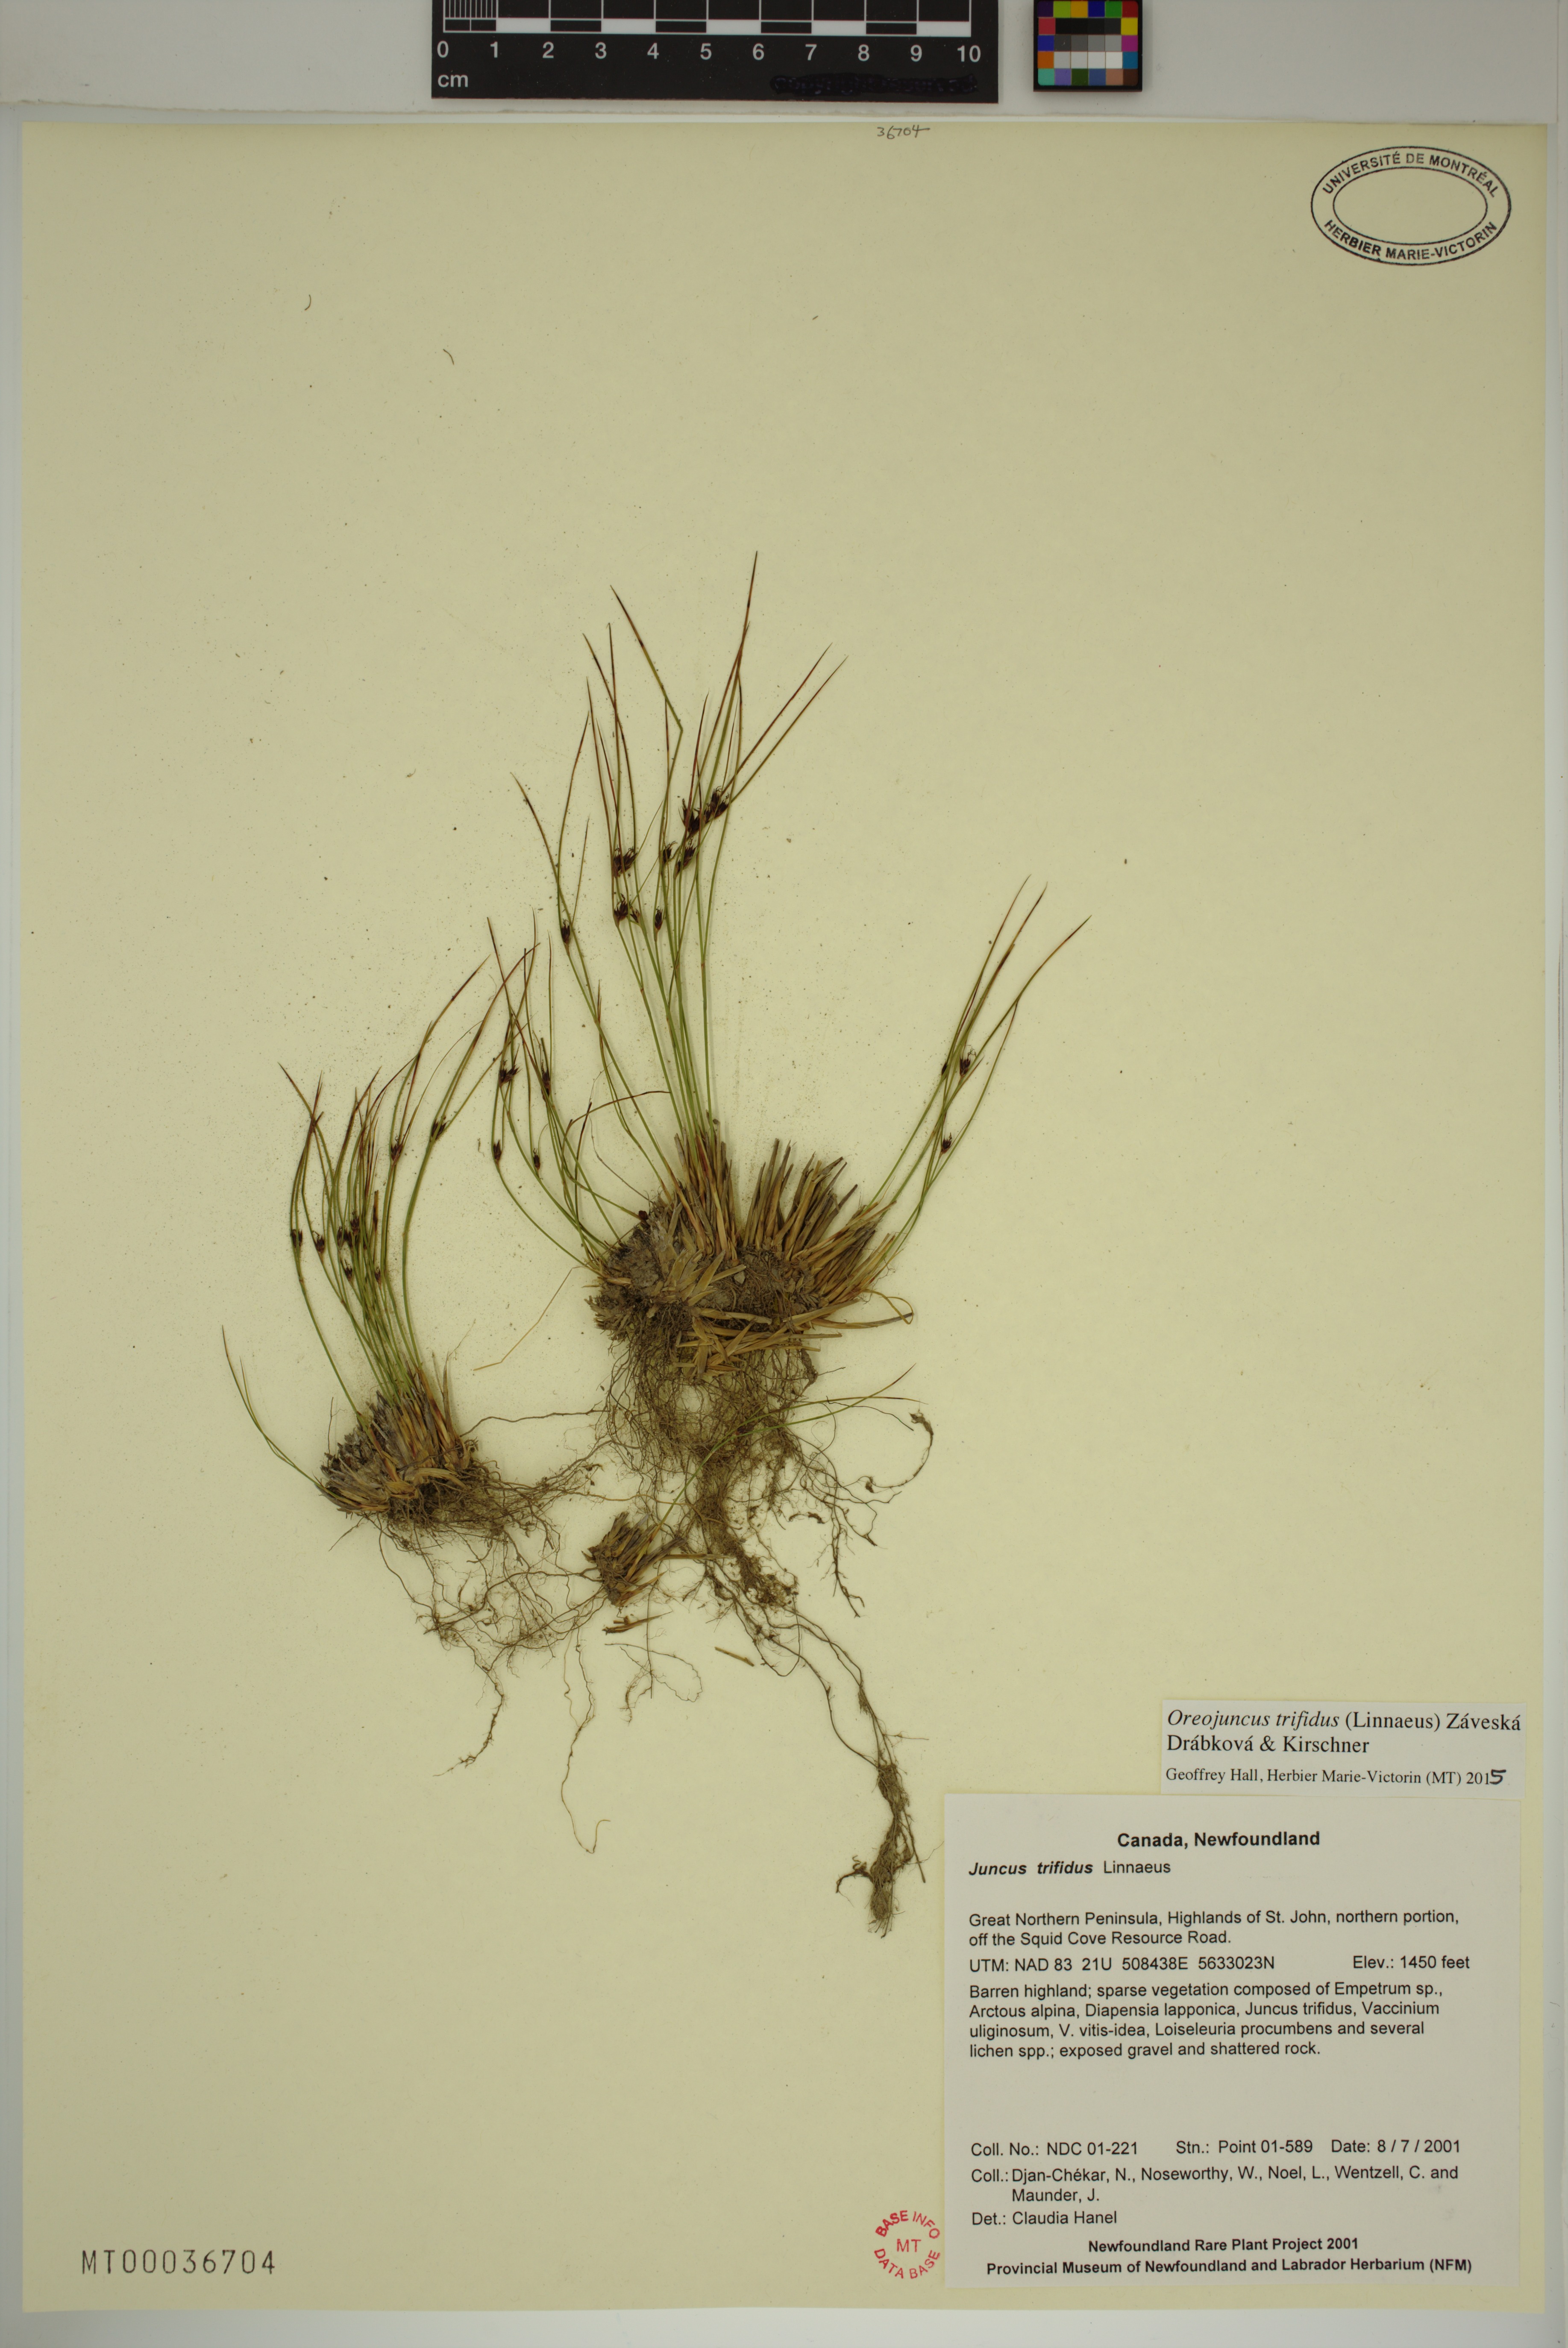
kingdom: Plantae
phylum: Tracheophyta
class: Liliopsida
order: Poales
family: Juncaceae
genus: Oreojuncus
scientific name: Oreojuncus trifidus
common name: Highland rush
